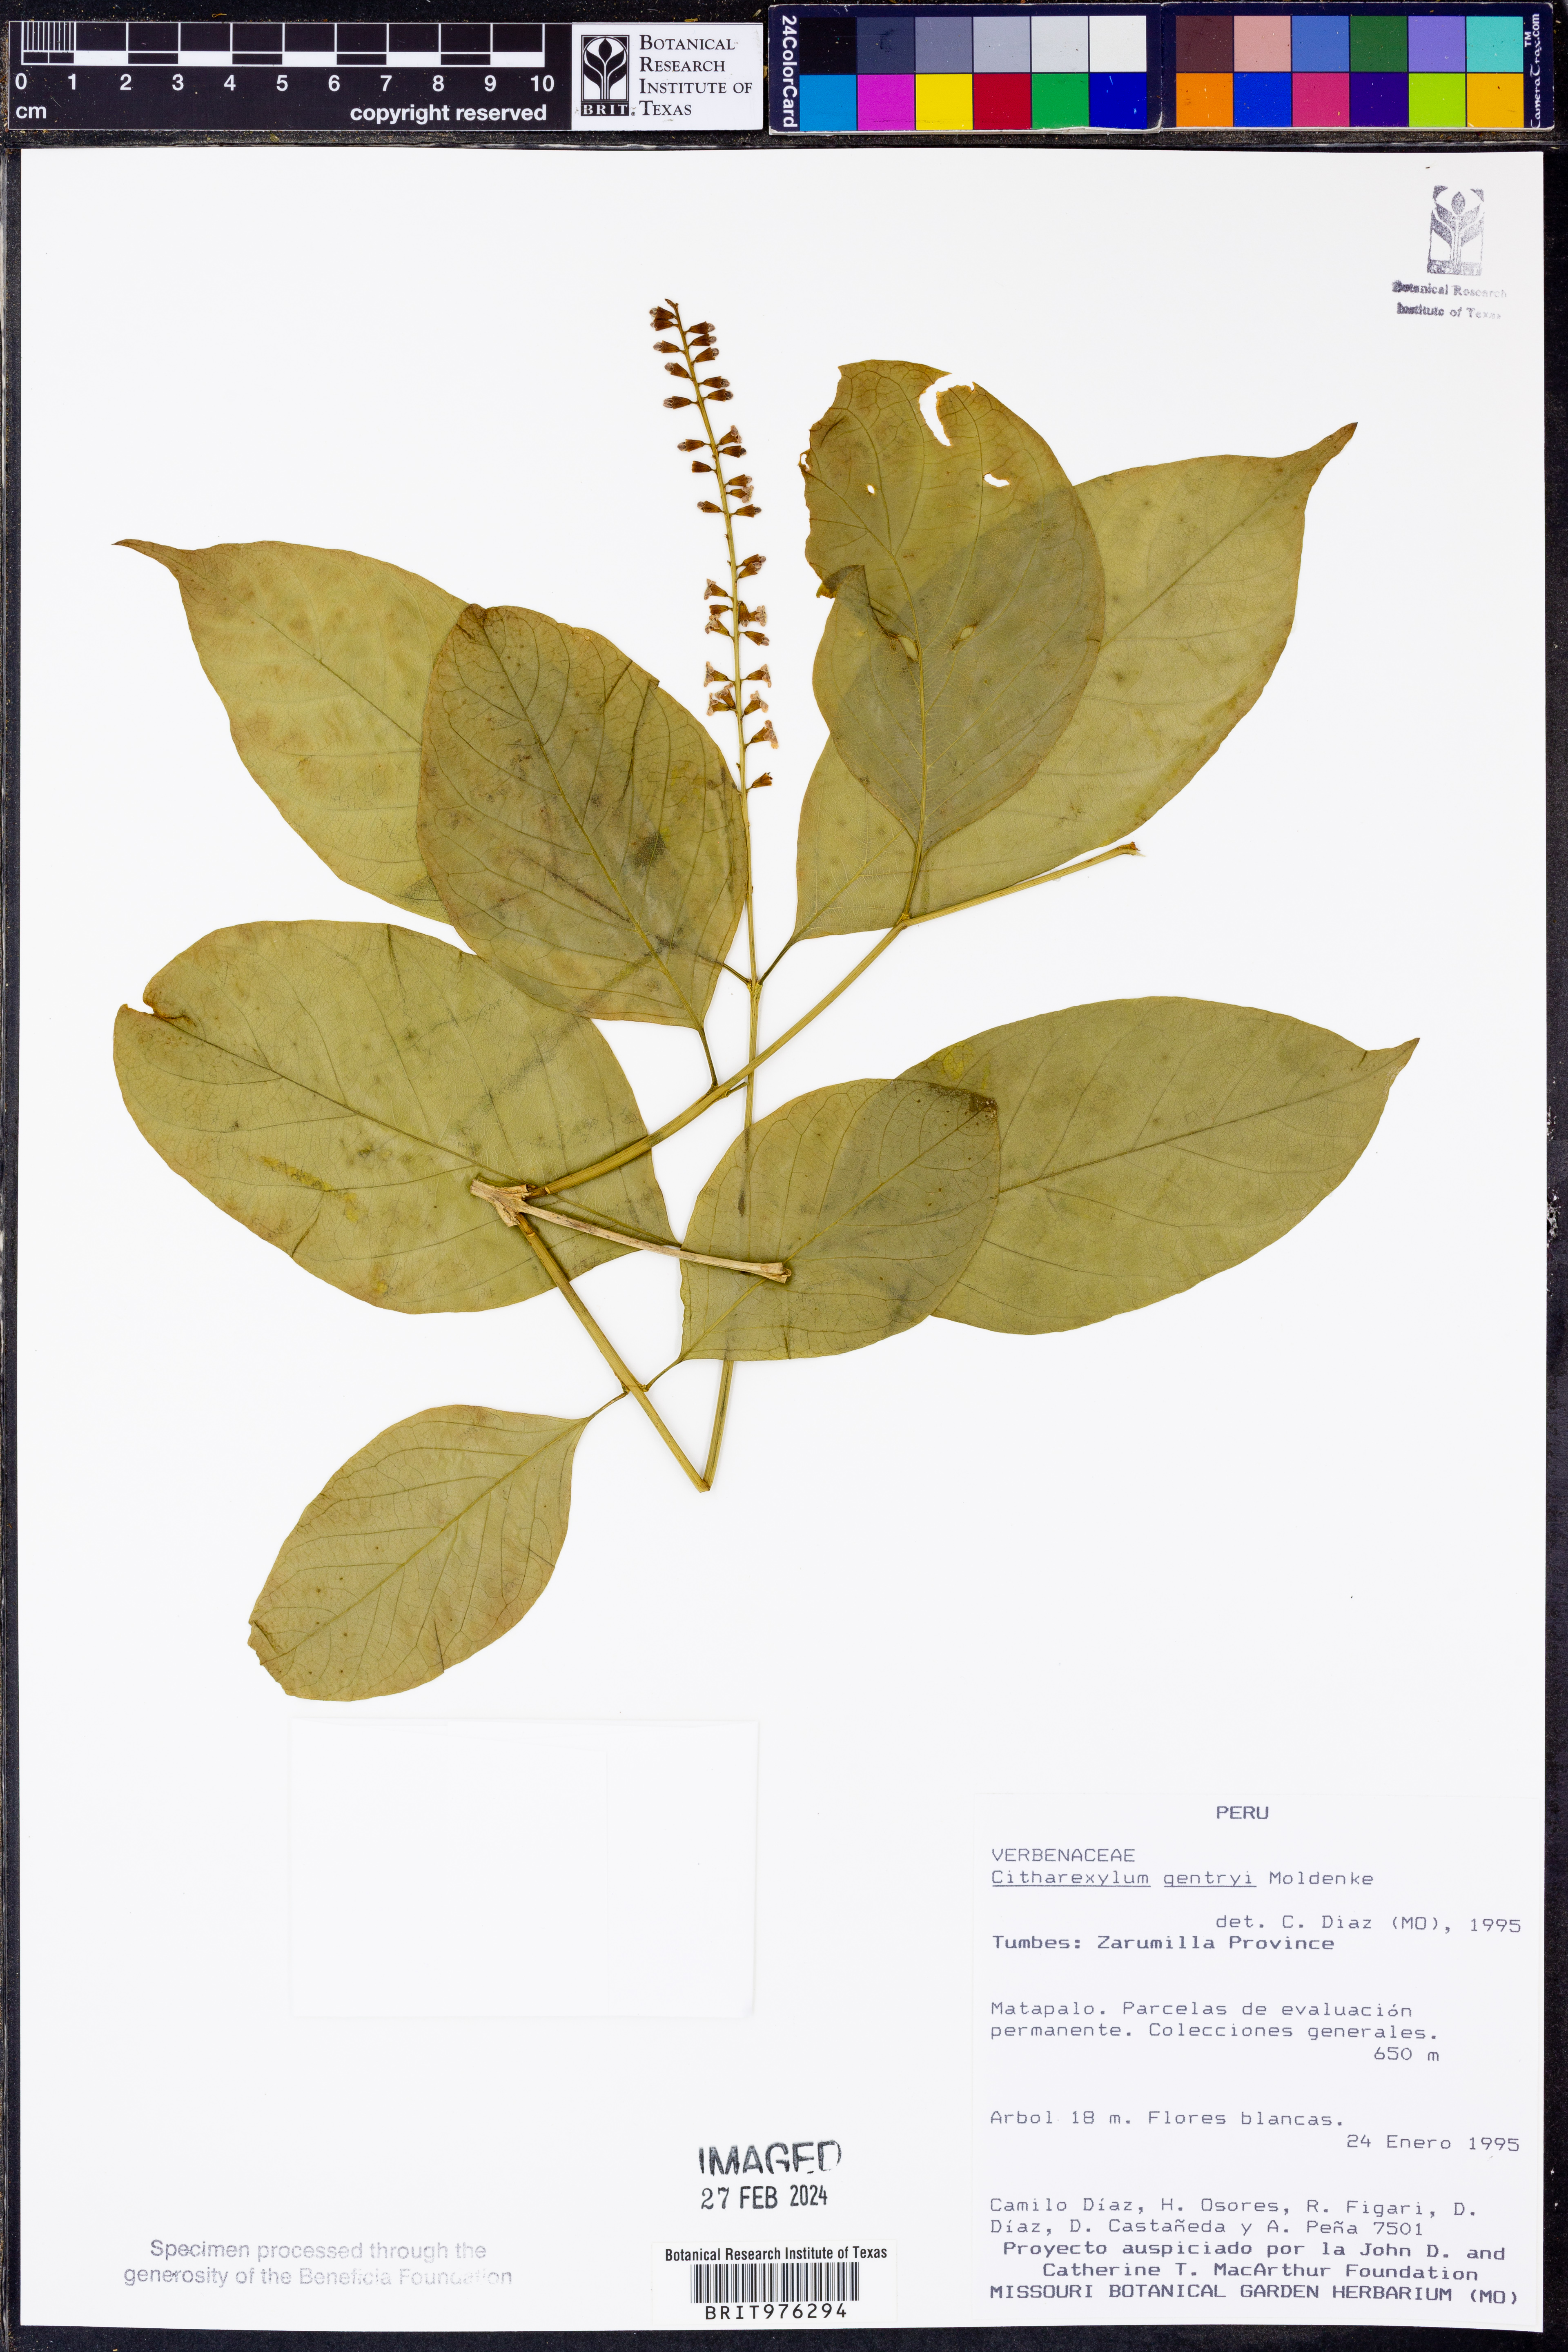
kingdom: Plantae
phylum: Tracheophyta
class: Magnoliopsida
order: Lamiales
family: Verbenaceae
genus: Citharexylum
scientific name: Citharexylum
